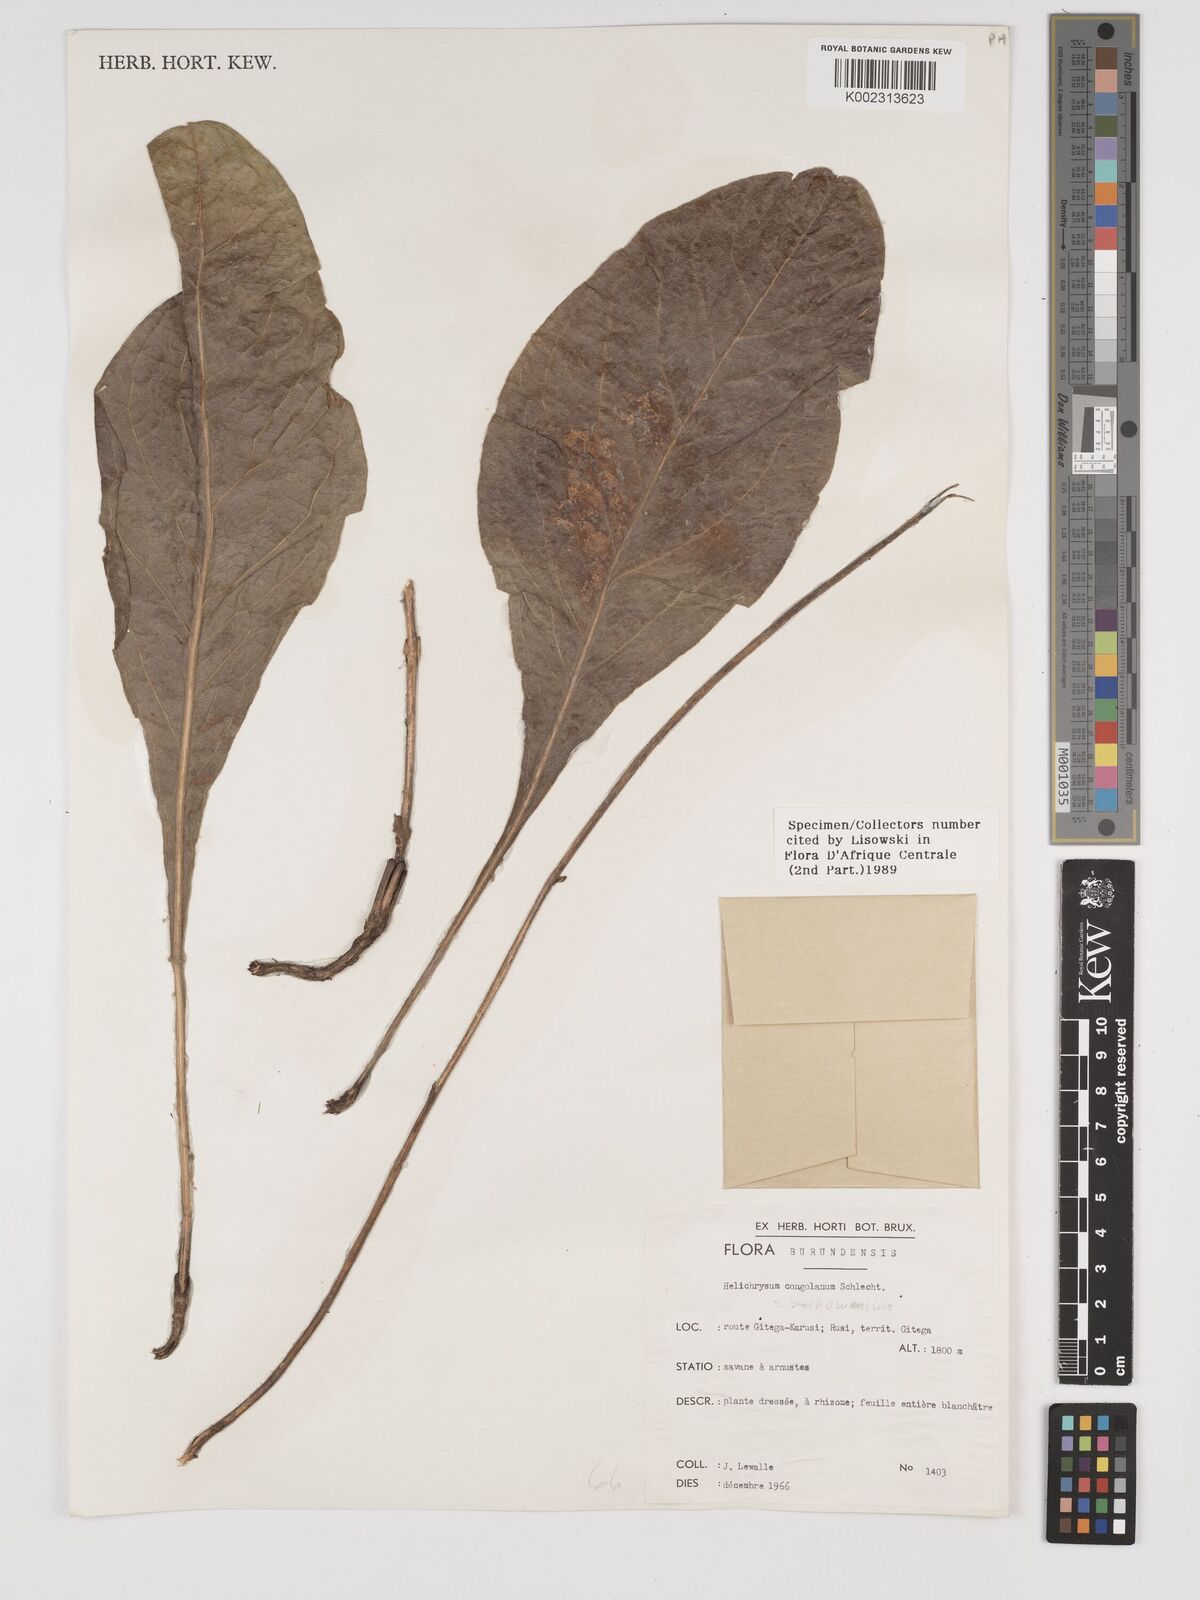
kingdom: Plantae
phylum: Tracheophyta
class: Magnoliopsida
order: Asterales
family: Asteraceae
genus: Helichrysum
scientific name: Helichrysum mechowianum
